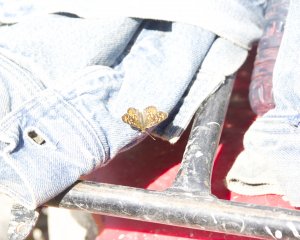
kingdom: Animalia
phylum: Arthropoda
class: Insecta
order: Lepidoptera
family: Nymphalidae
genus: Phyciodes
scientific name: Phyciodes batesii
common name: Tawny Crescent
